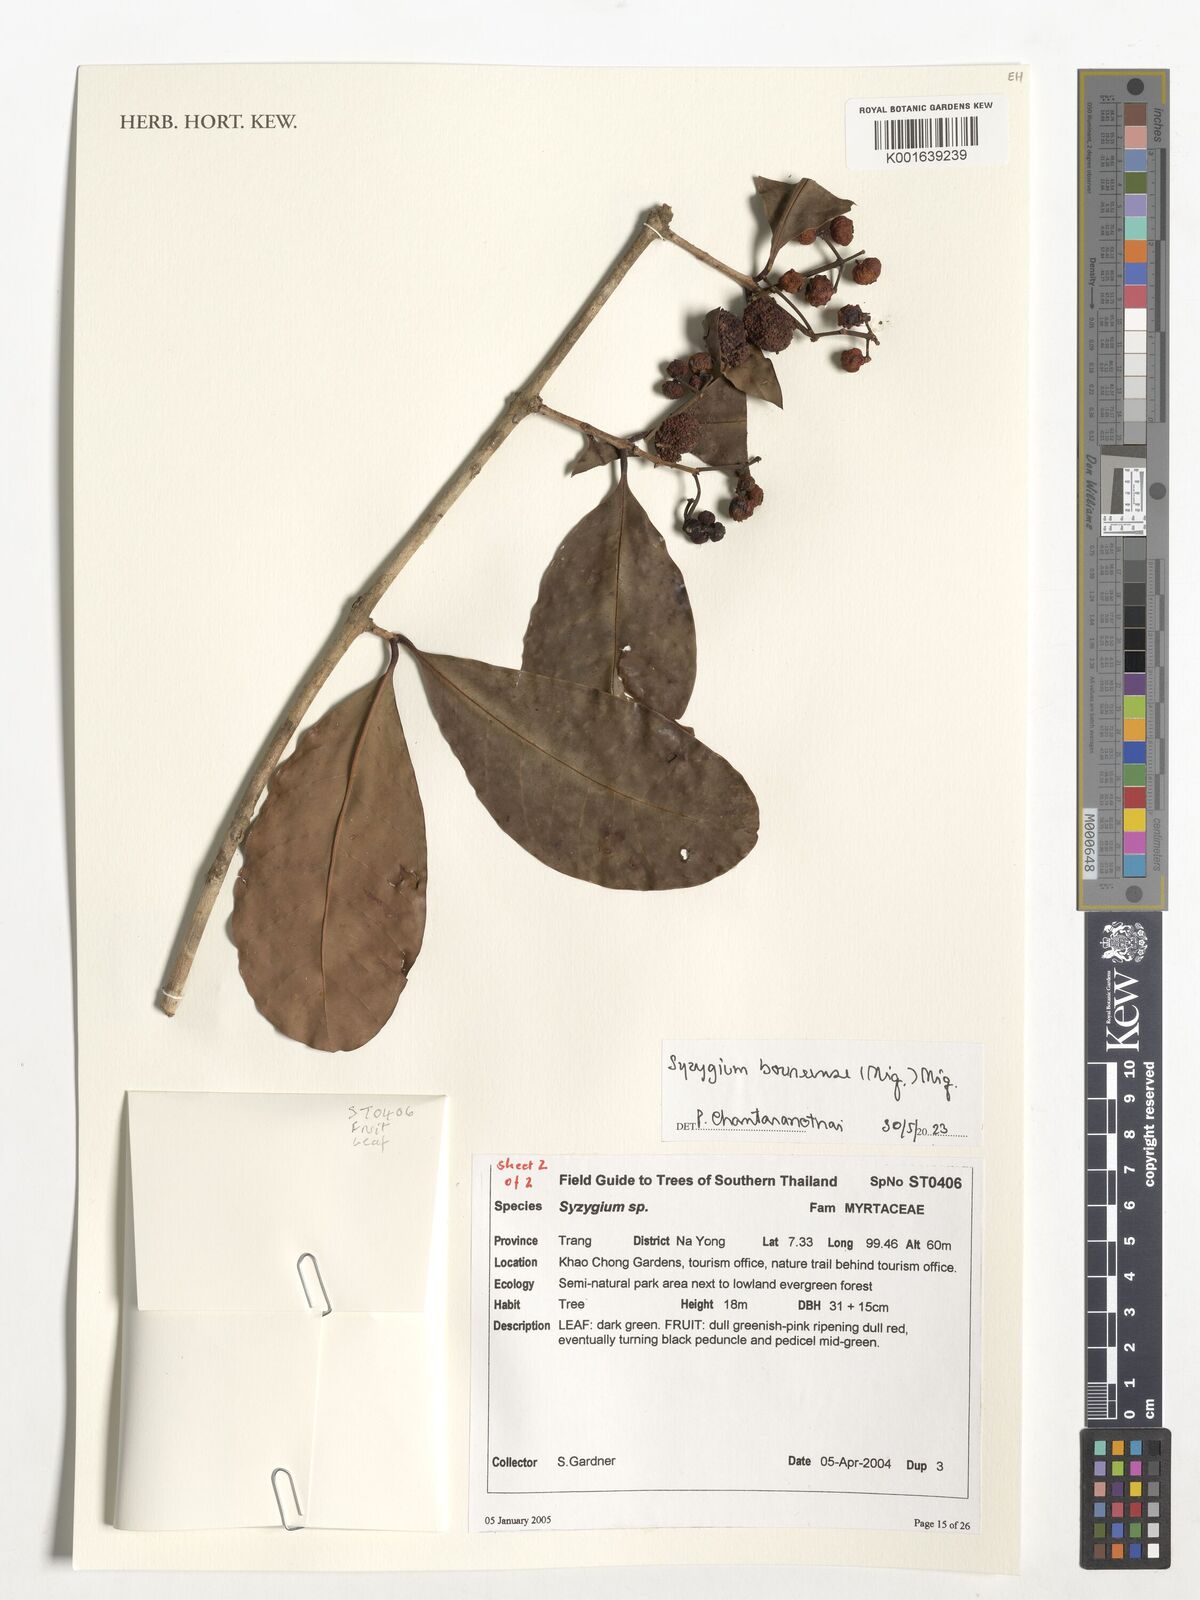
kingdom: Plantae
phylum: Tracheophyta
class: Magnoliopsida
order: Myrtales
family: Myrtaceae
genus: Syzygium
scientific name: Syzygium borneense
